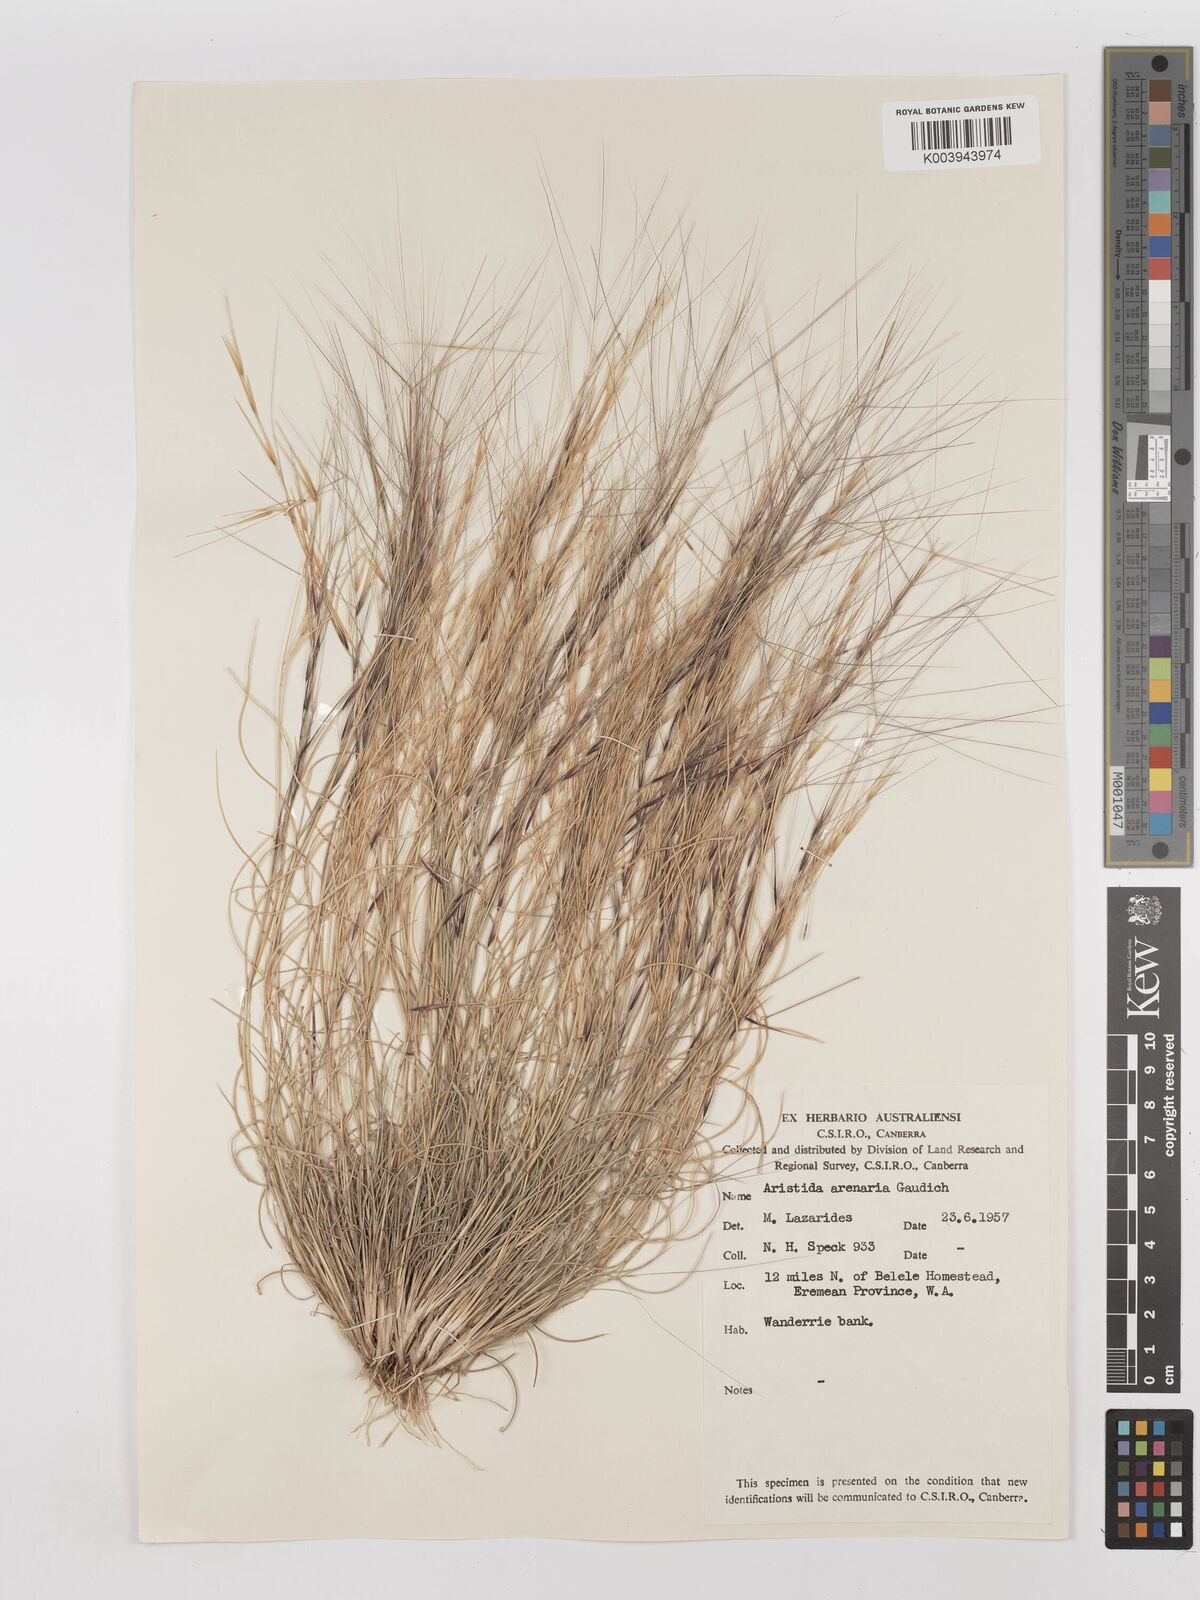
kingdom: Plantae
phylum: Tracheophyta
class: Liliopsida
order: Poales
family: Poaceae
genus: Aristida
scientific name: Aristida contorta
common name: Bunch kerosene grass
